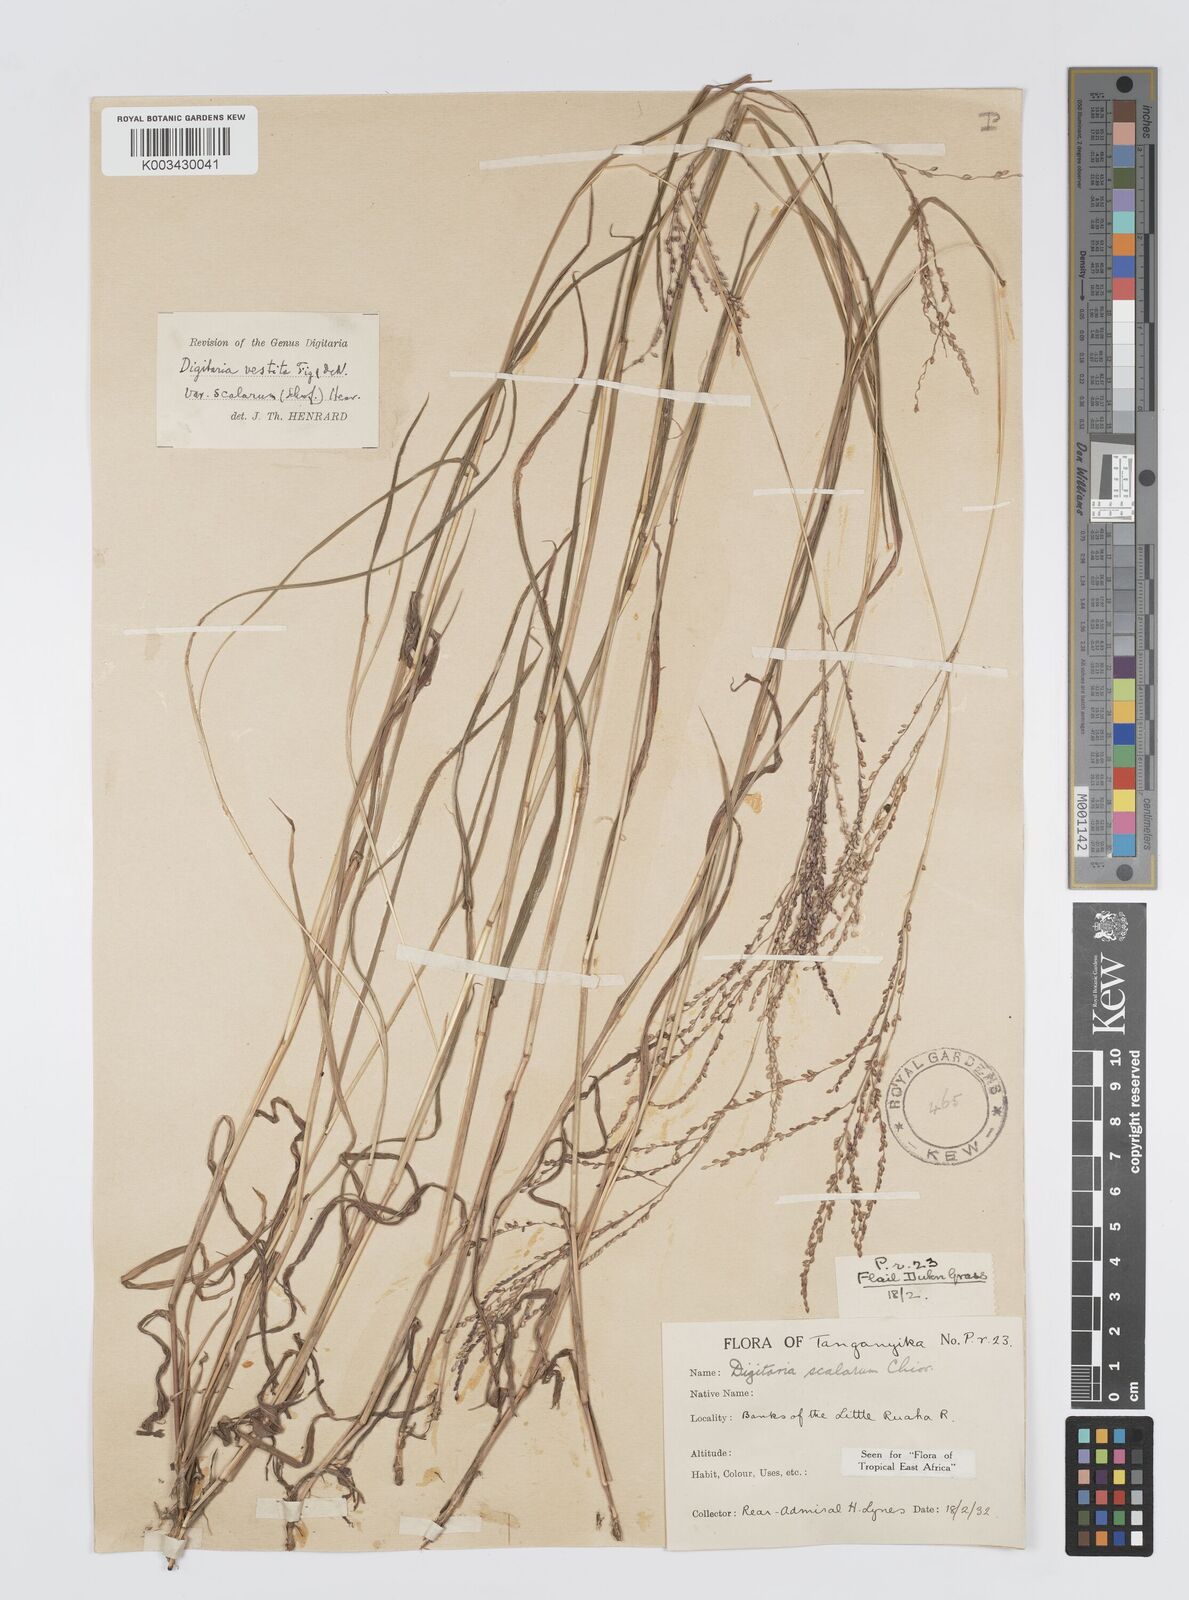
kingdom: Plantae
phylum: Tracheophyta
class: Liliopsida
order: Poales
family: Poaceae
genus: Digitaria
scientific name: Digitaria abyssinica
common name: African couchgrass
